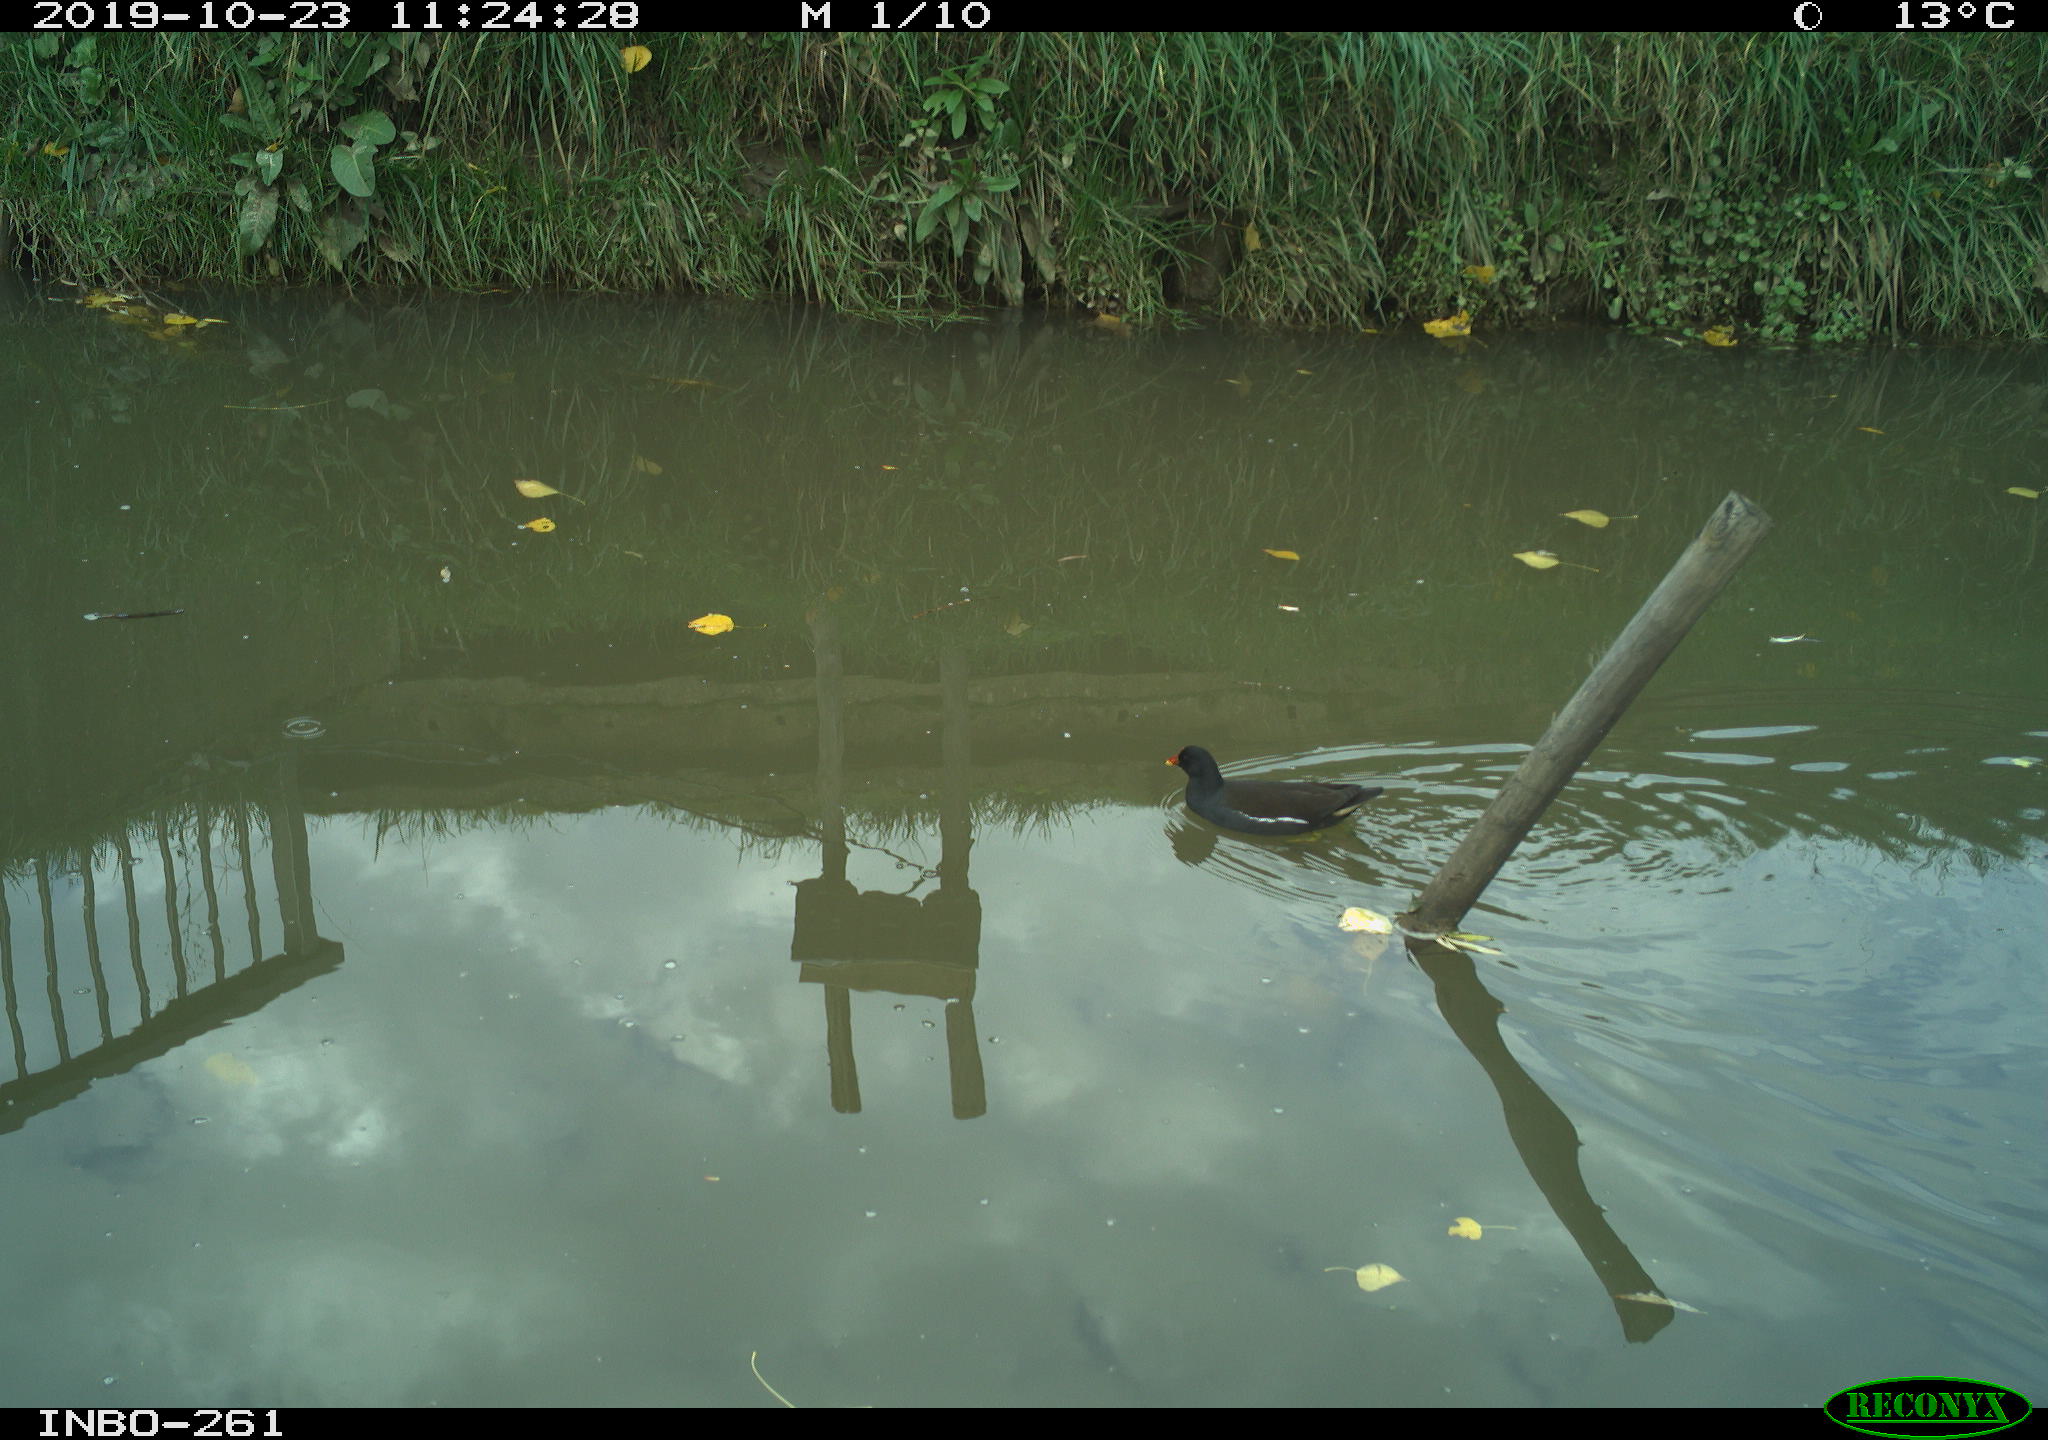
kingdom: Animalia
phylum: Chordata
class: Aves
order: Gruiformes
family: Rallidae
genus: Gallinula
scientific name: Gallinula chloropus
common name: Common moorhen
